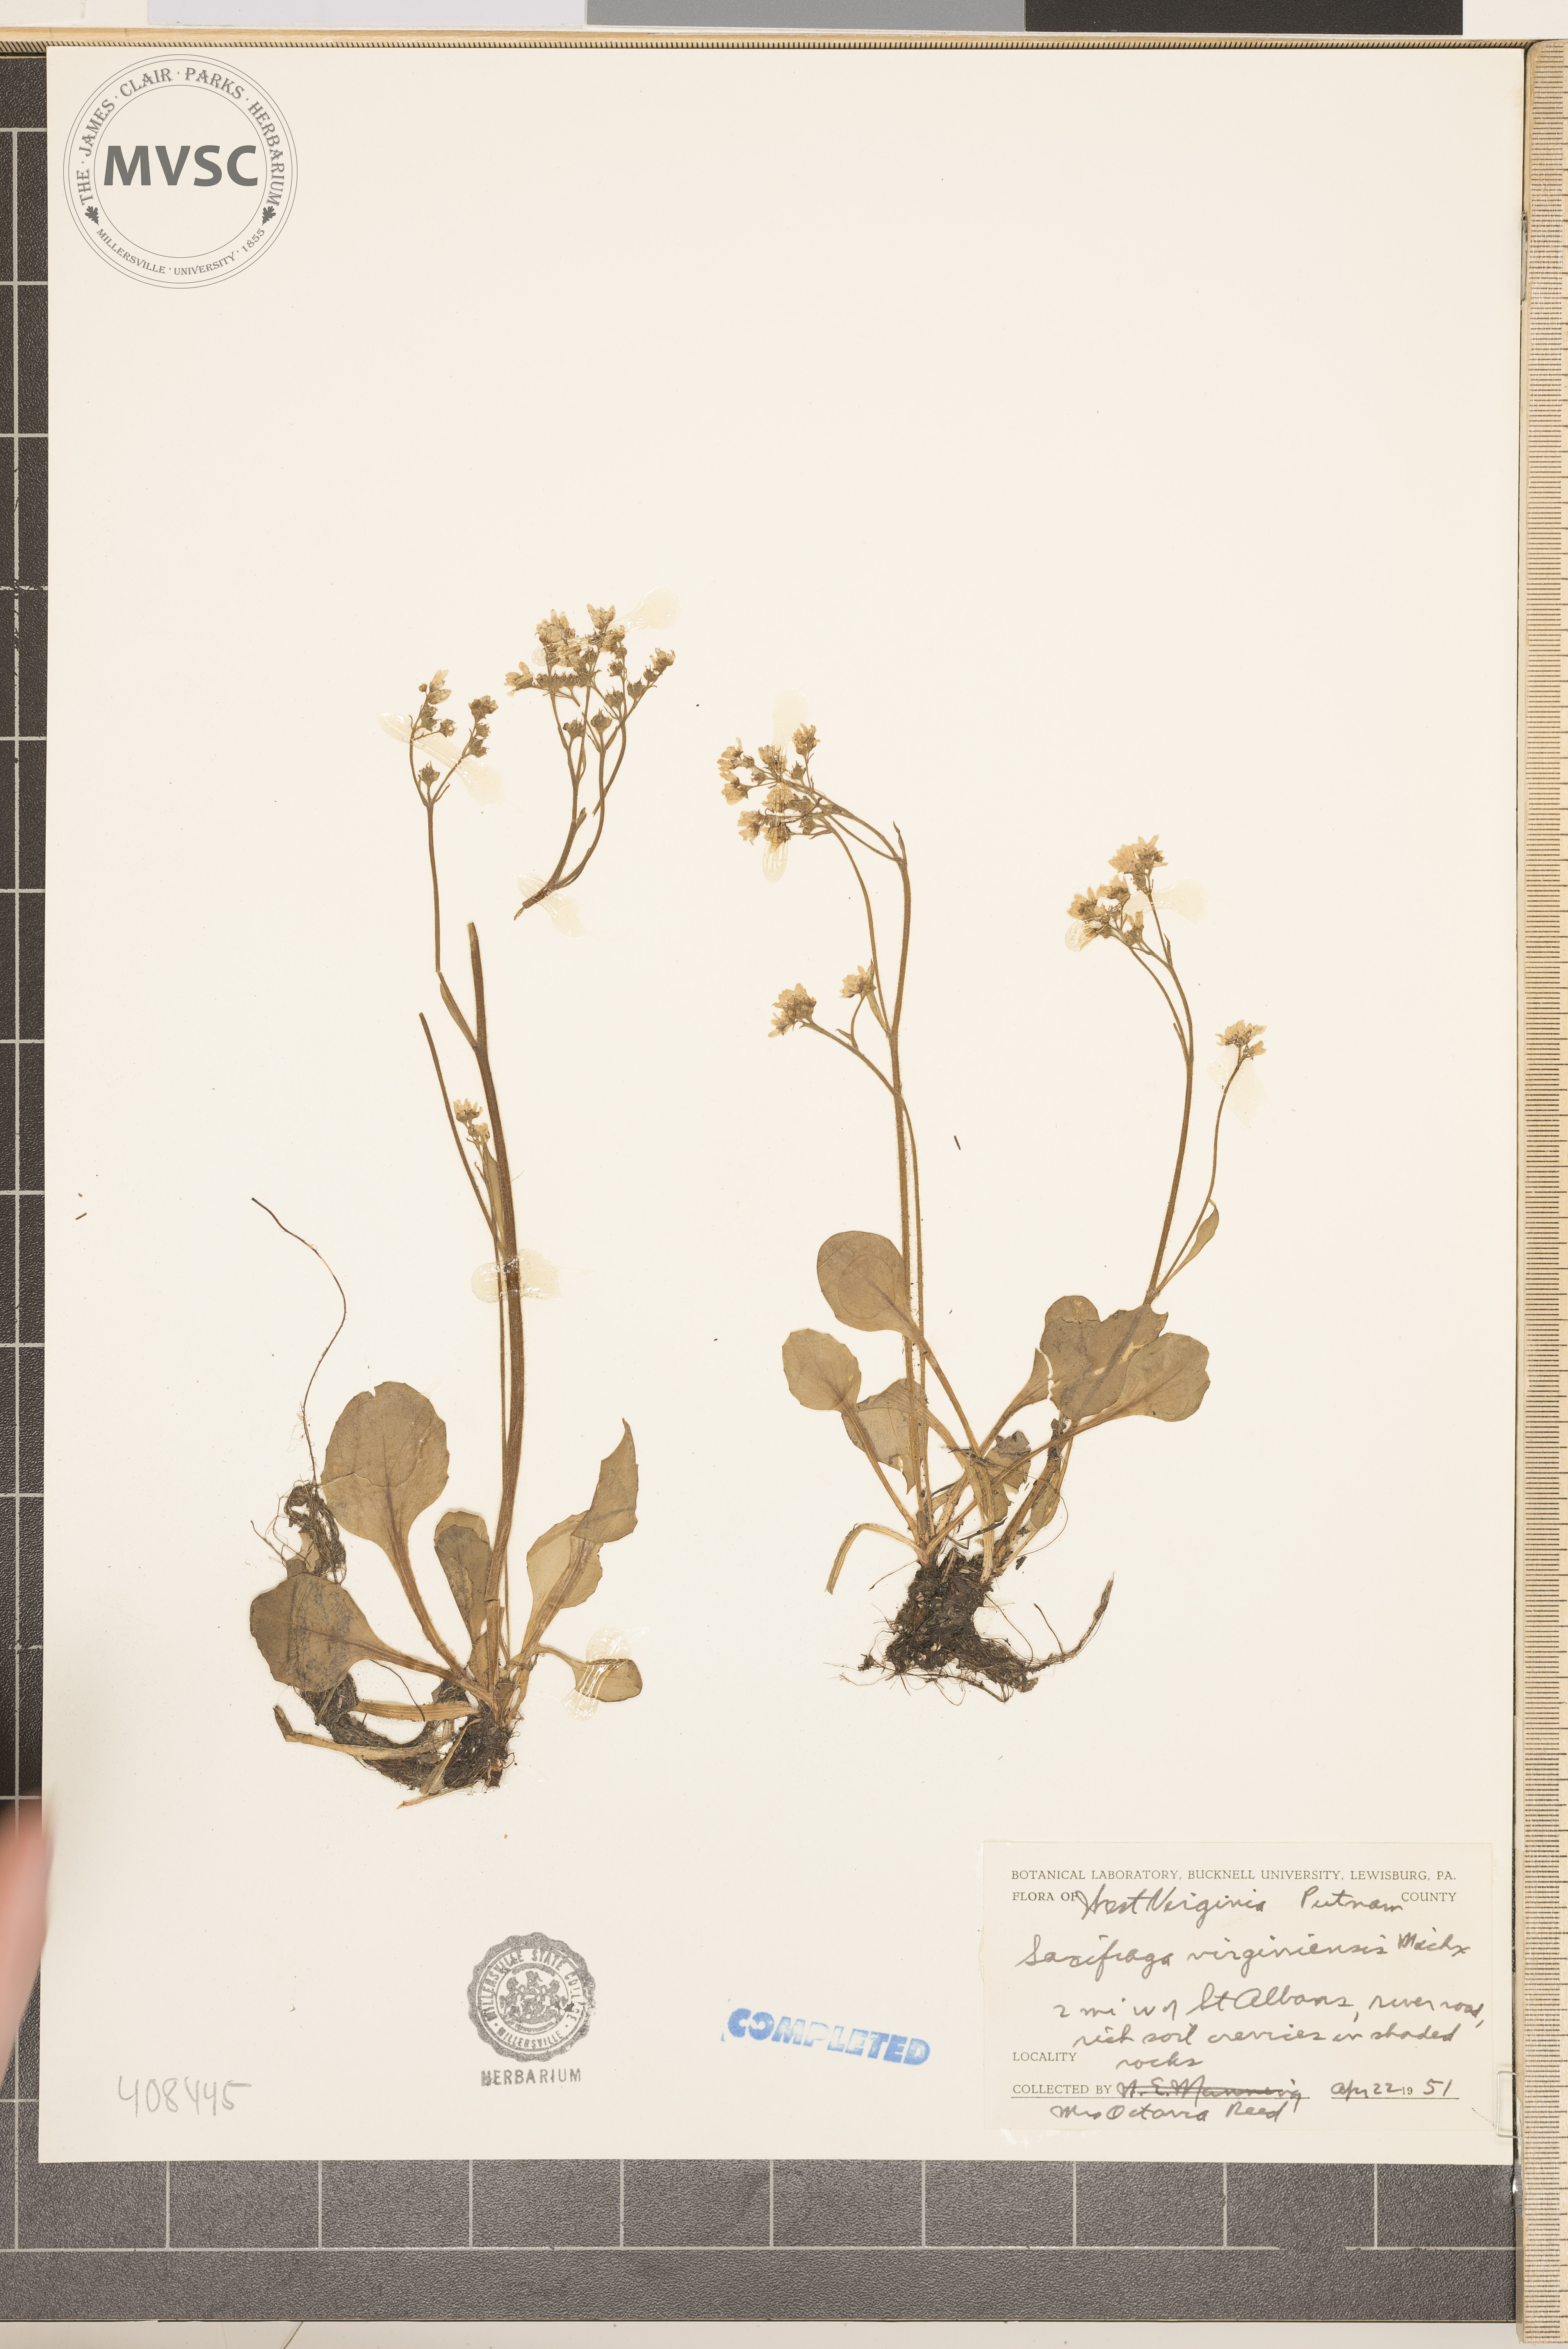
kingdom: Plantae
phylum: Tracheophyta
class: Magnoliopsida
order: Saxifragales
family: Saxifragaceae
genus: Micranthes
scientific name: Micranthes virginiensis
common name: Early saxifrage
